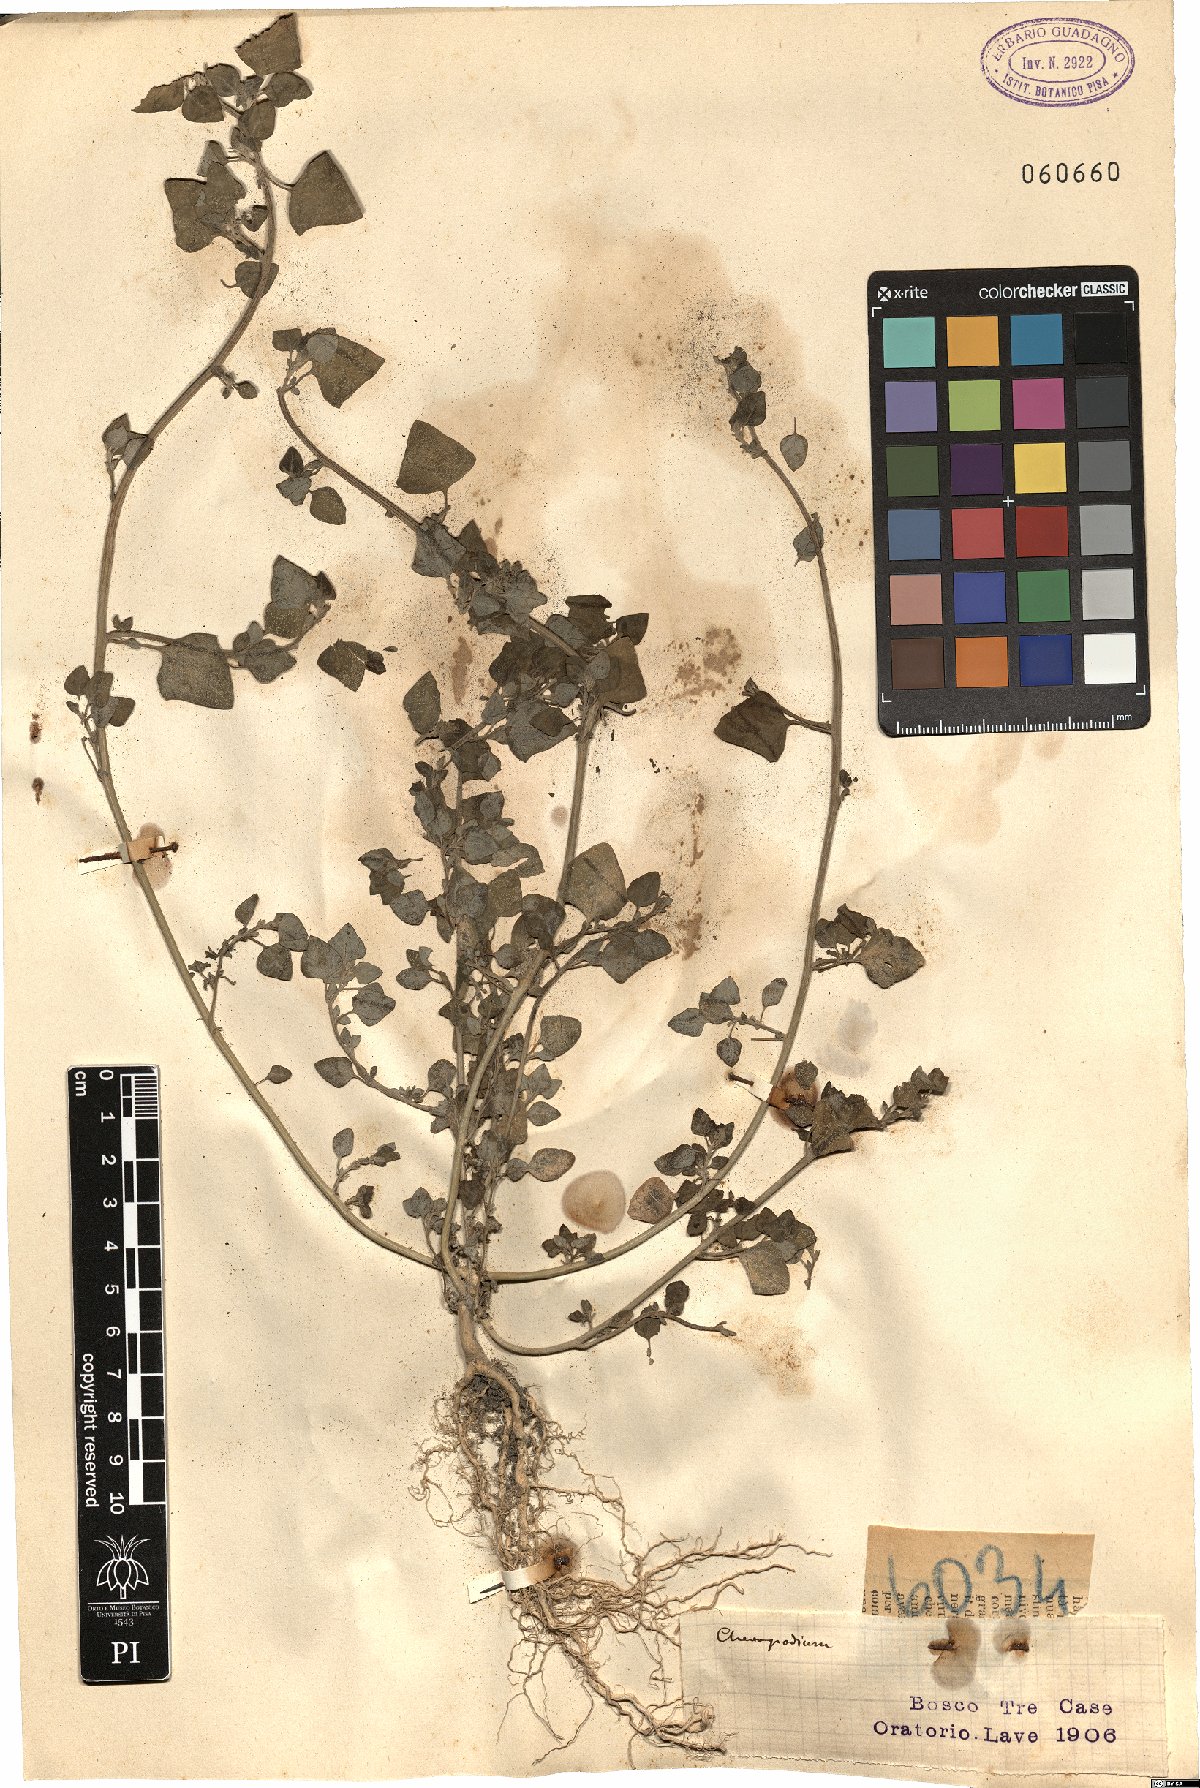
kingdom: Plantae
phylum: Tracheophyta
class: Magnoliopsida
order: Caryophyllales
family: Amaranthaceae
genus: Chenopodium
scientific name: Chenopodium
